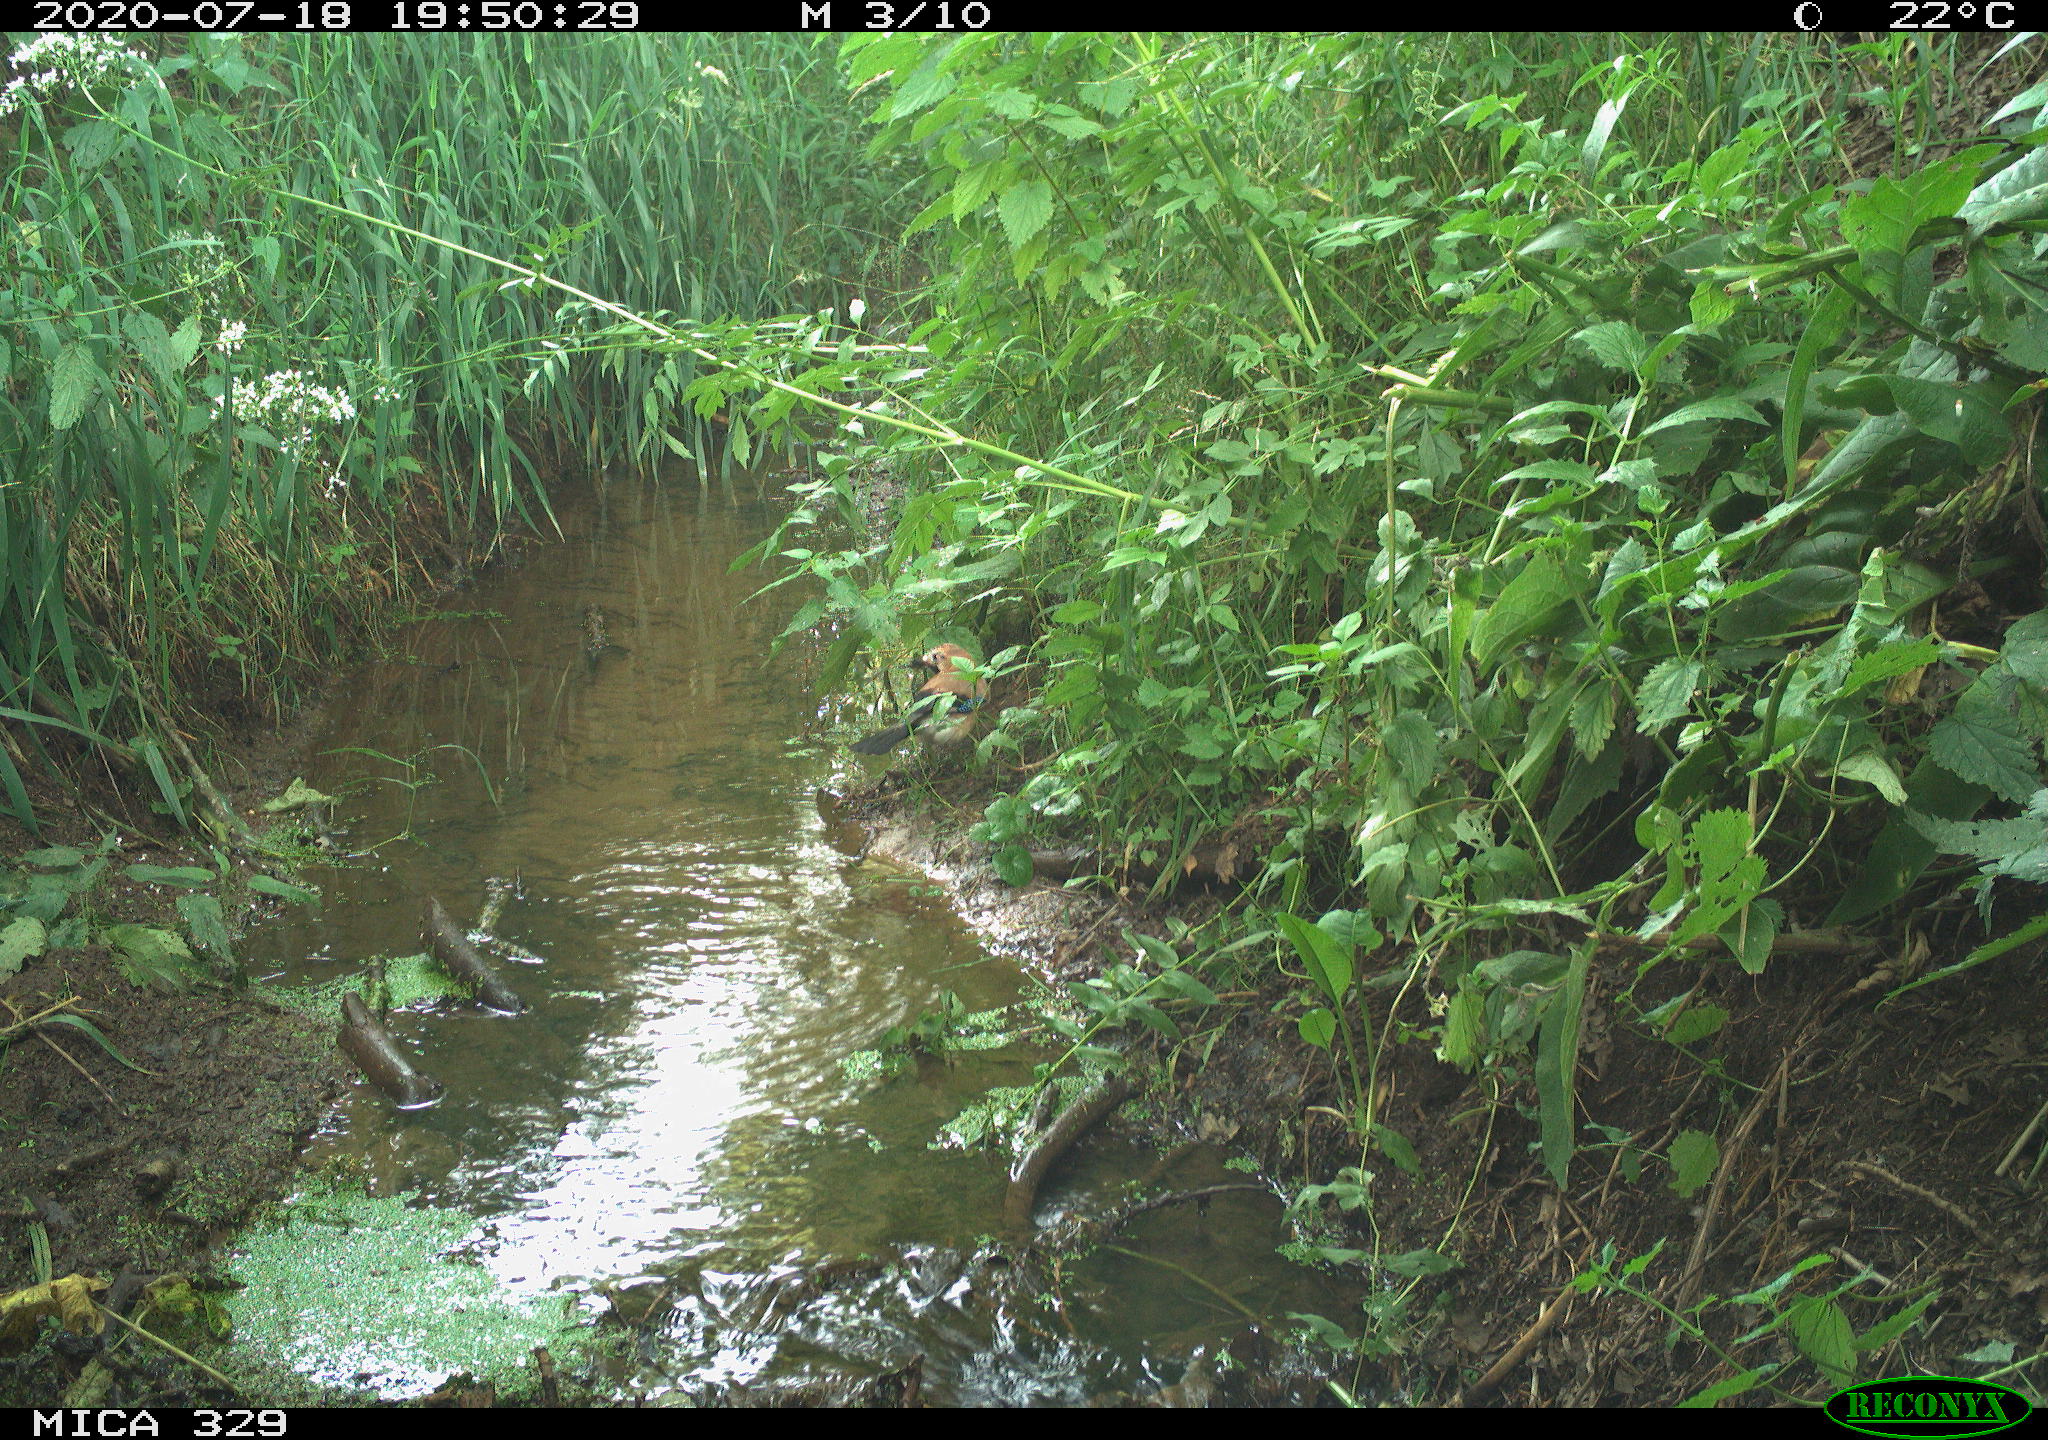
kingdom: Animalia
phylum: Chordata
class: Aves
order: Passeriformes
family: Corvidae
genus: Garrulus
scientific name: Garrulus glandarius
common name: Eurasian jay
